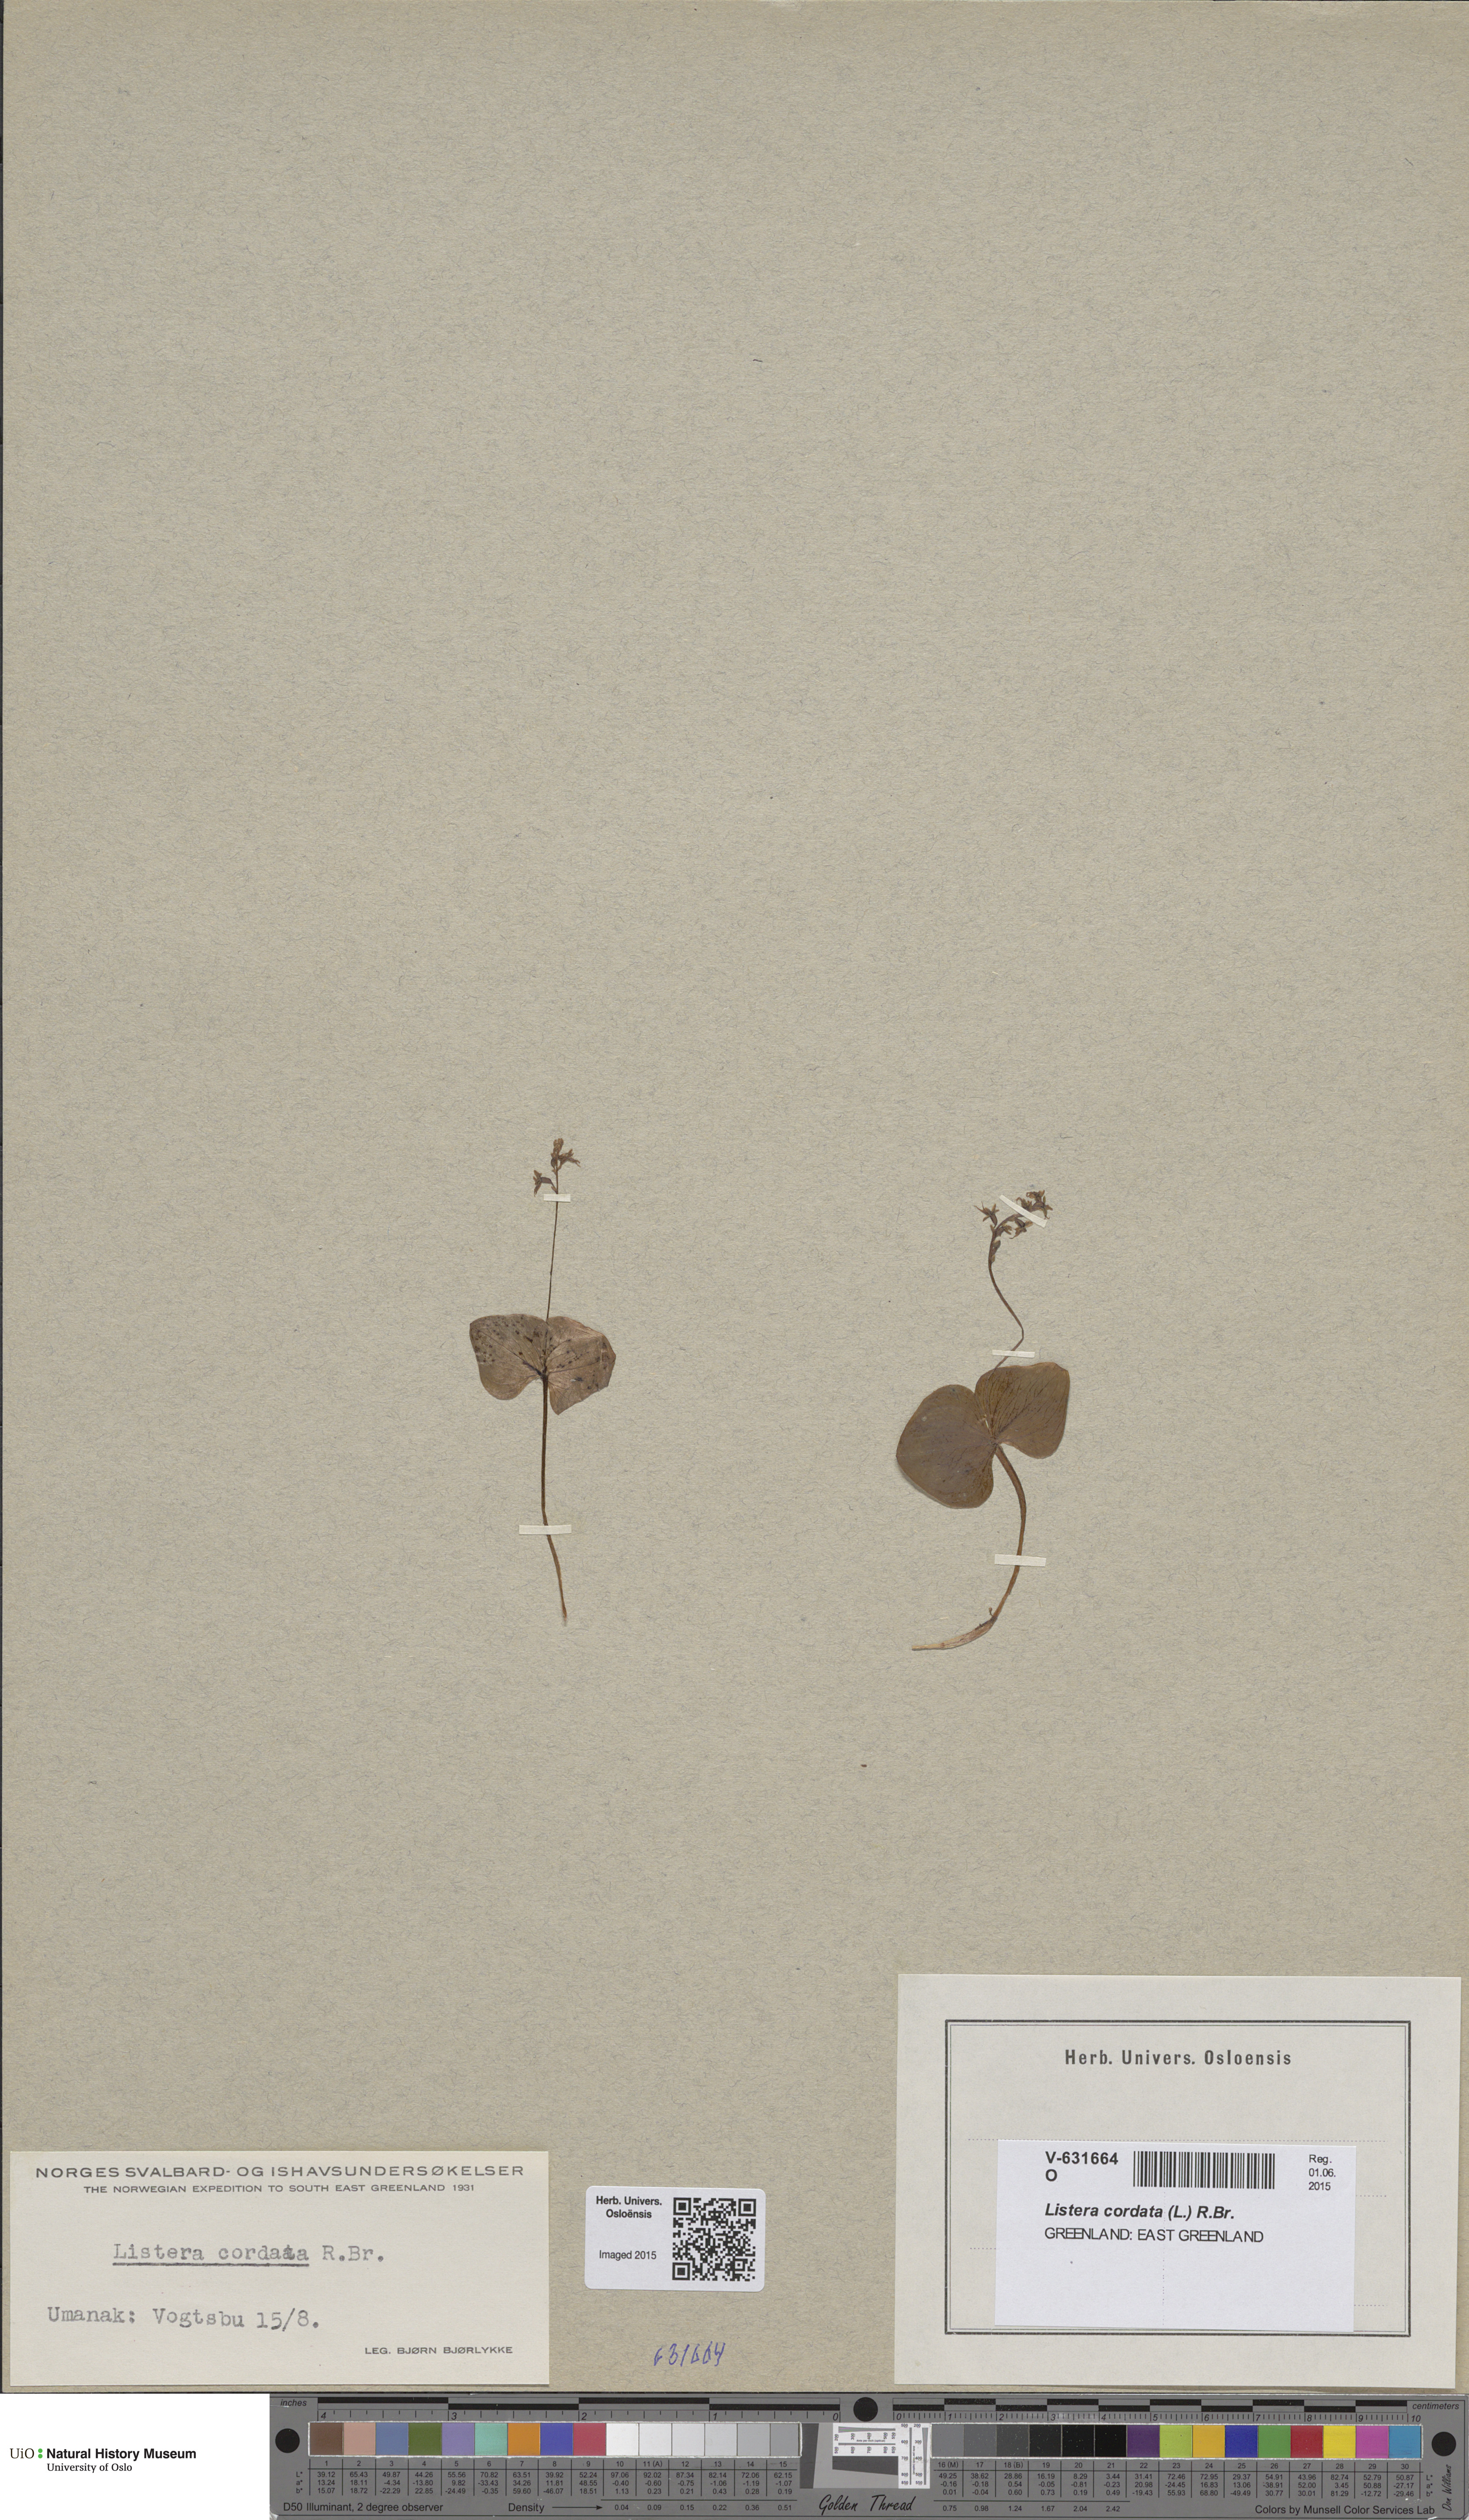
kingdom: Plantae
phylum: Tracheophyta
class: Liliopsida
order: Asparagales
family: Orchidaceae
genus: Neottia
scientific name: Neottia cordata
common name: Lesser twayblade
